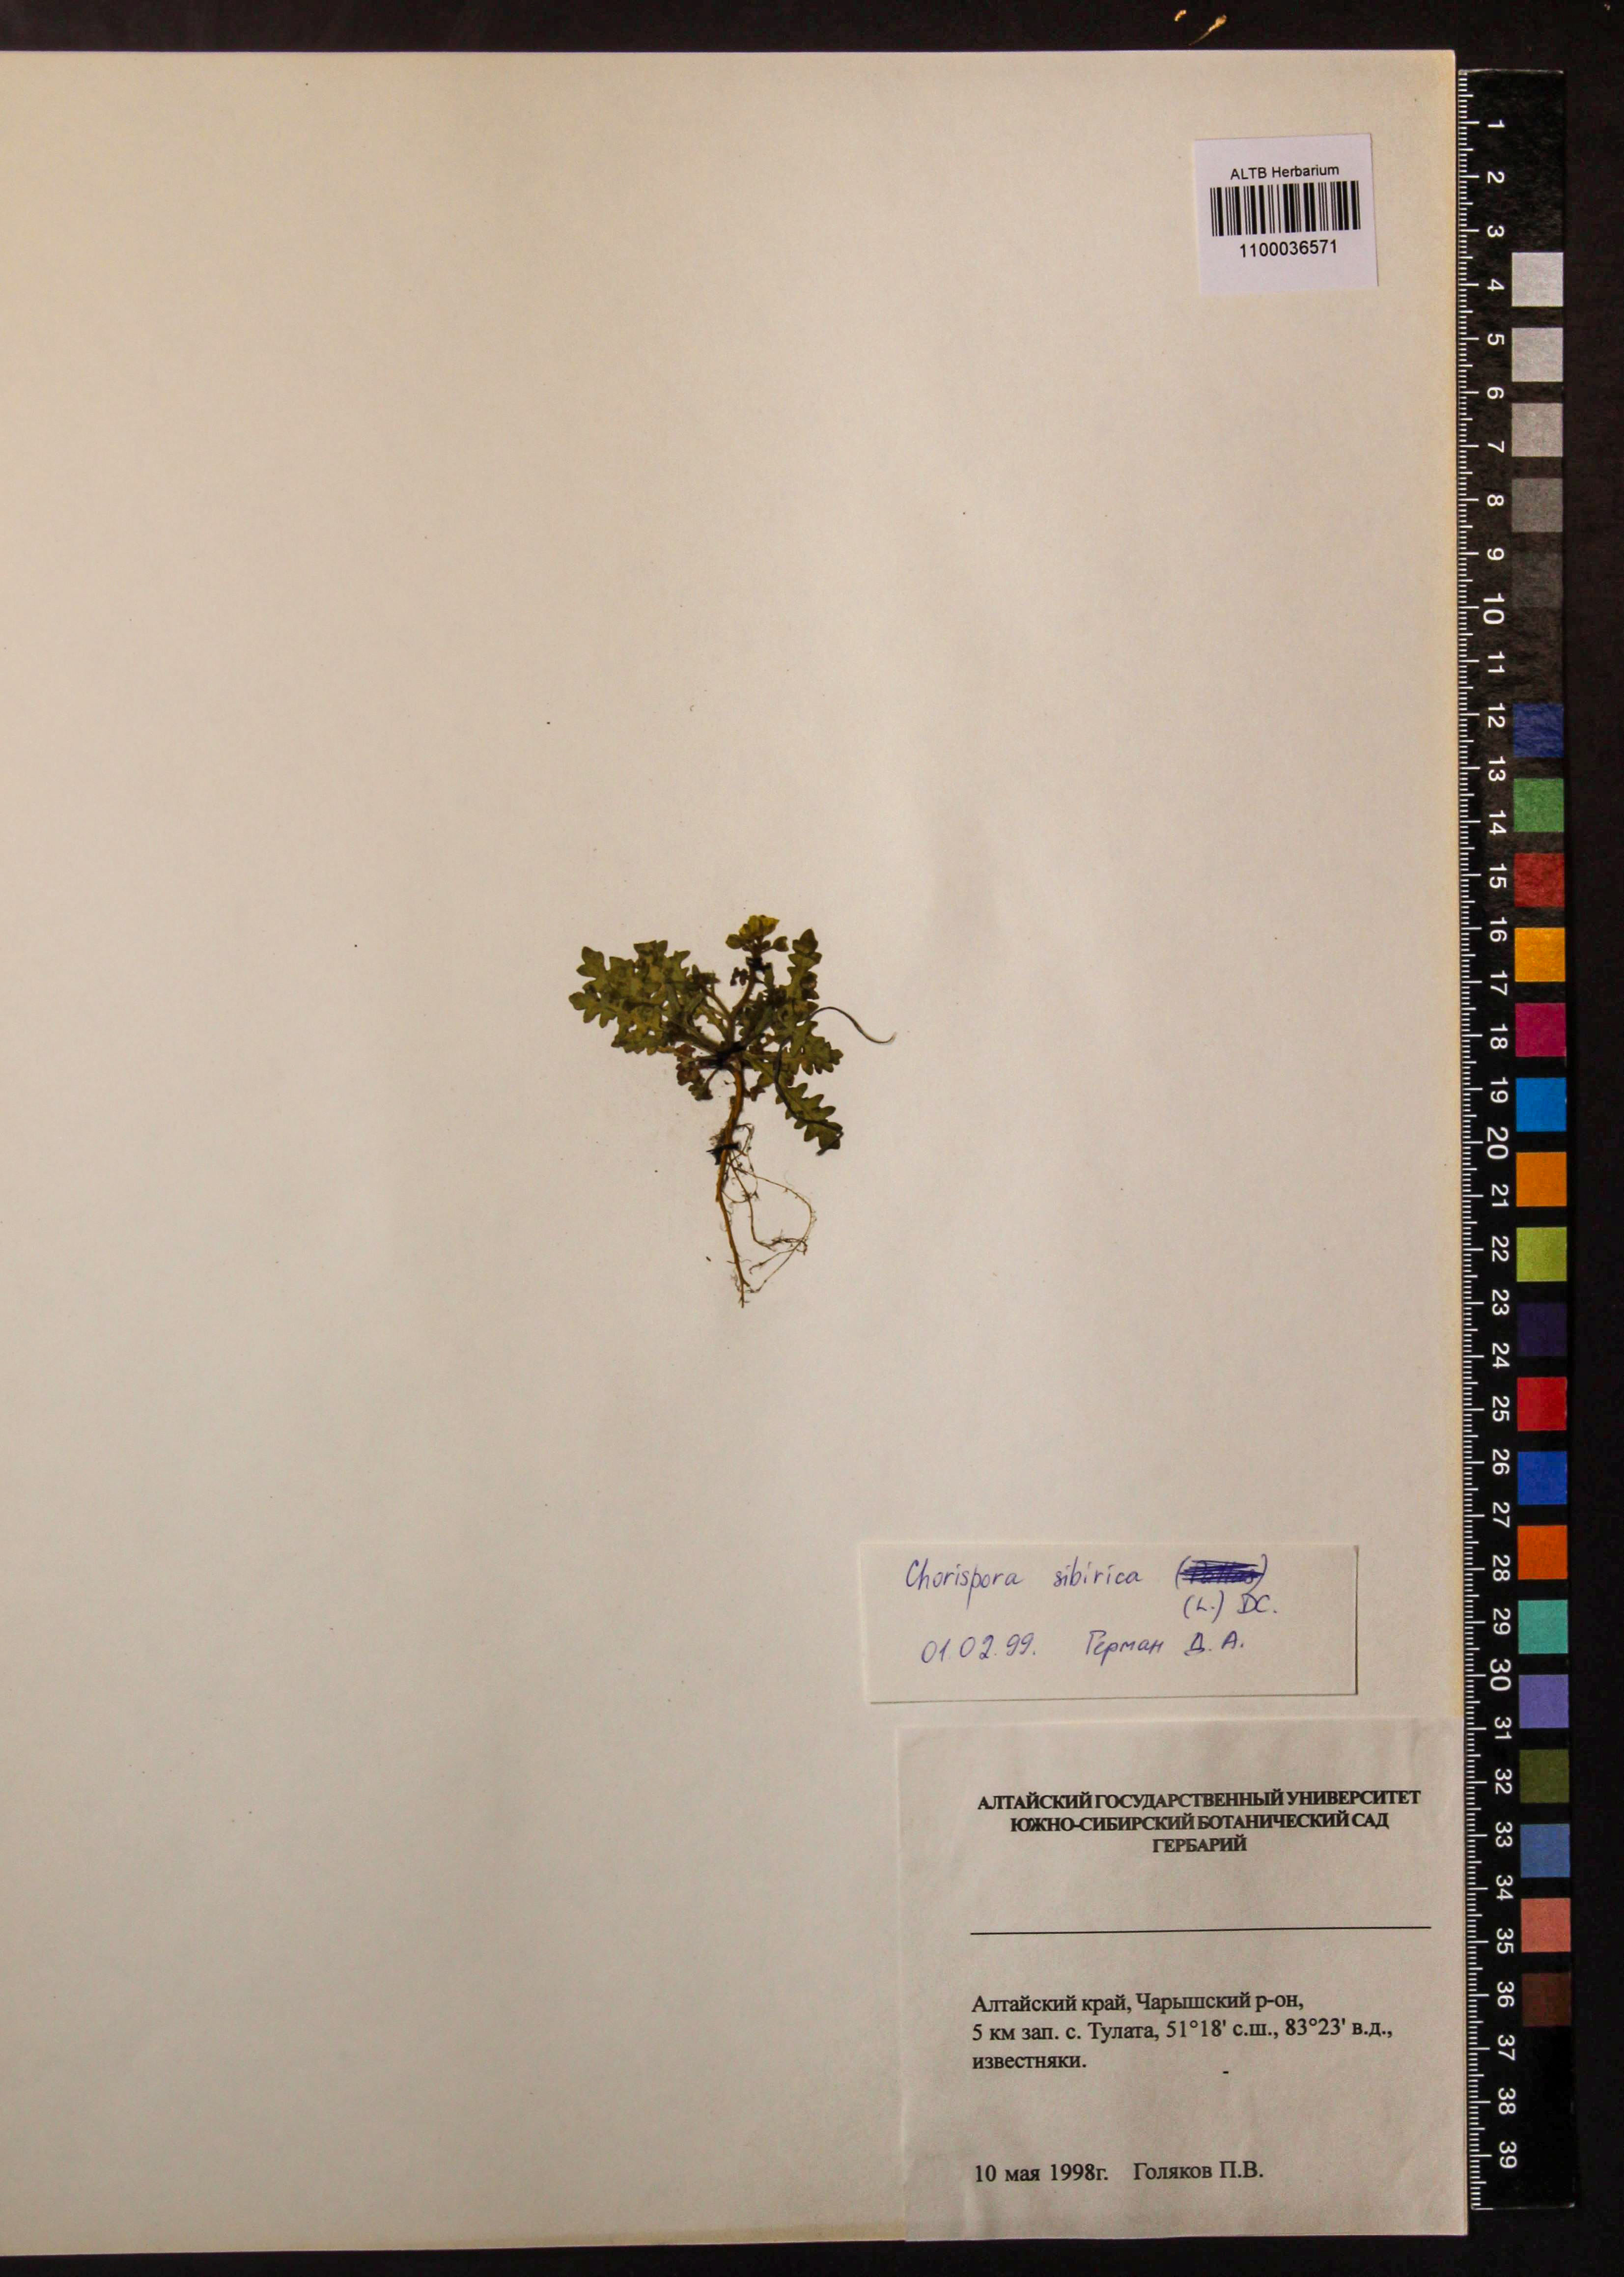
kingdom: Plantae
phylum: Tracheophyta
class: Magnoliopsida
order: Brassicales
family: Brassicaceae
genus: Chorispora
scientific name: Chorispora sibirica
